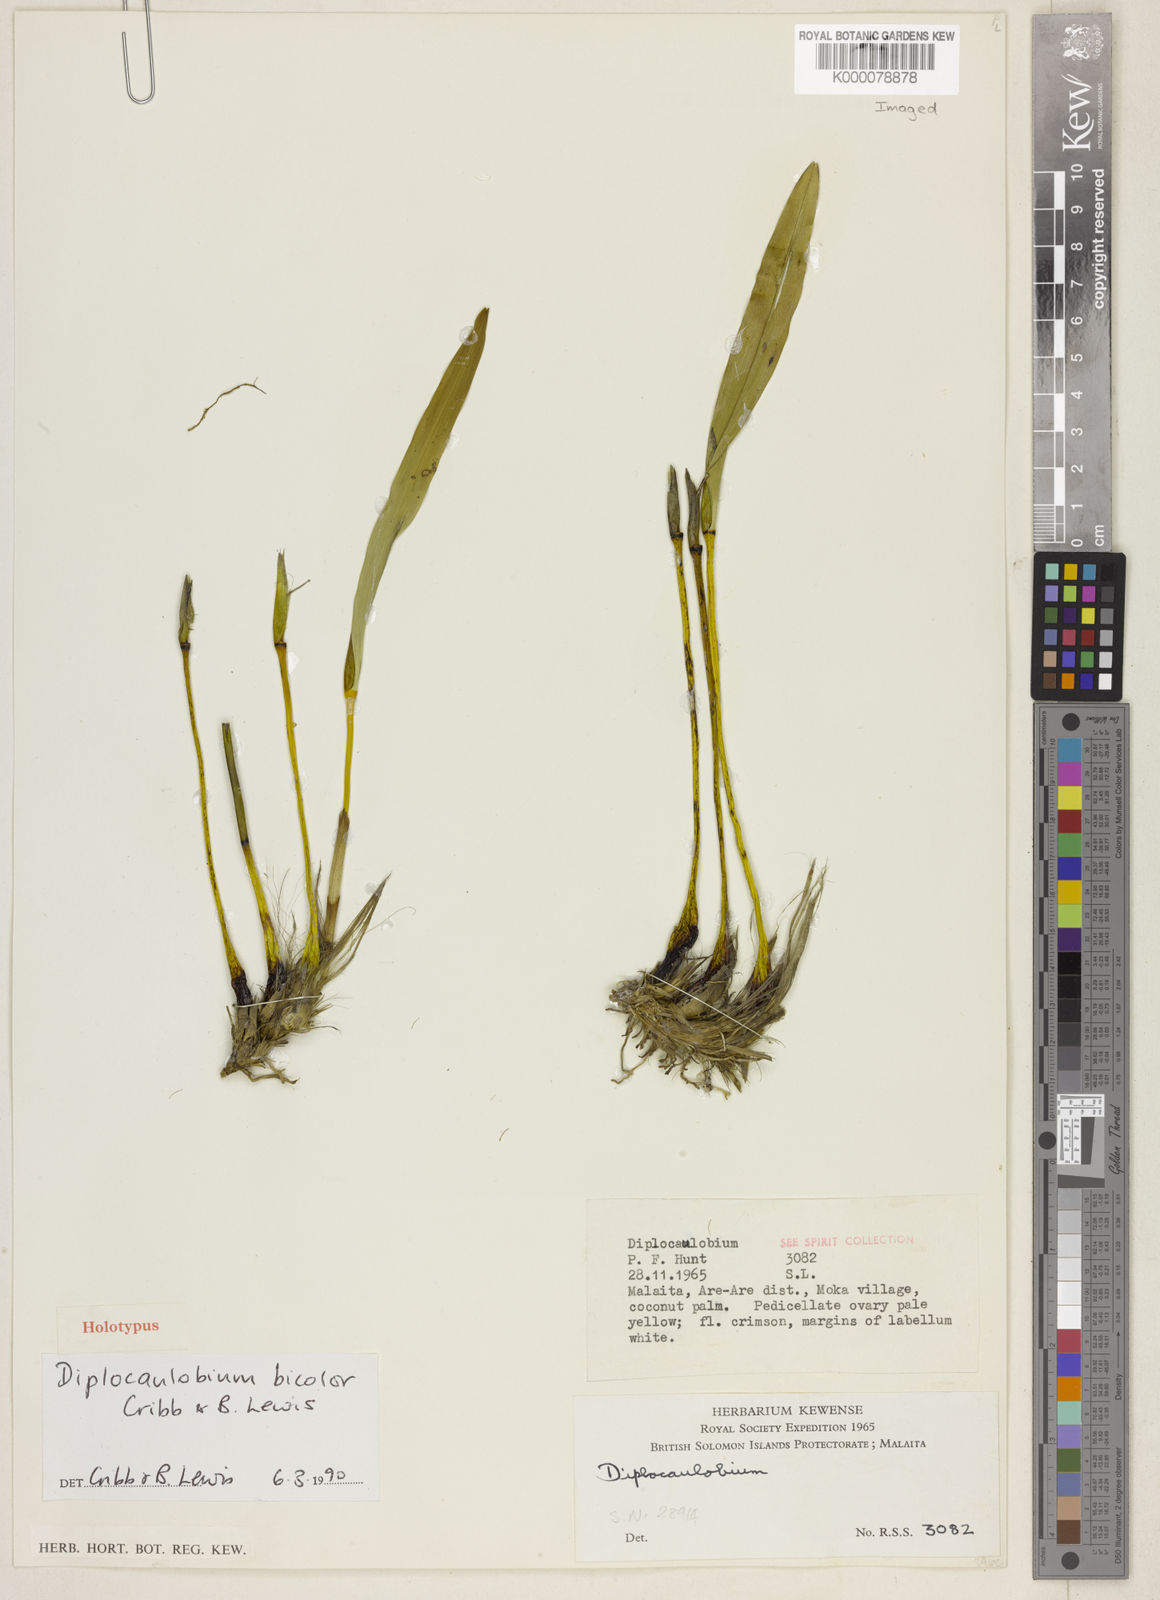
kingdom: Plantae
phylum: Tracheophyta
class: Liliopsida
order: Asparagales
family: Orchidaceae
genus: Dendrobium
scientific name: Dendrobium lewisiae
